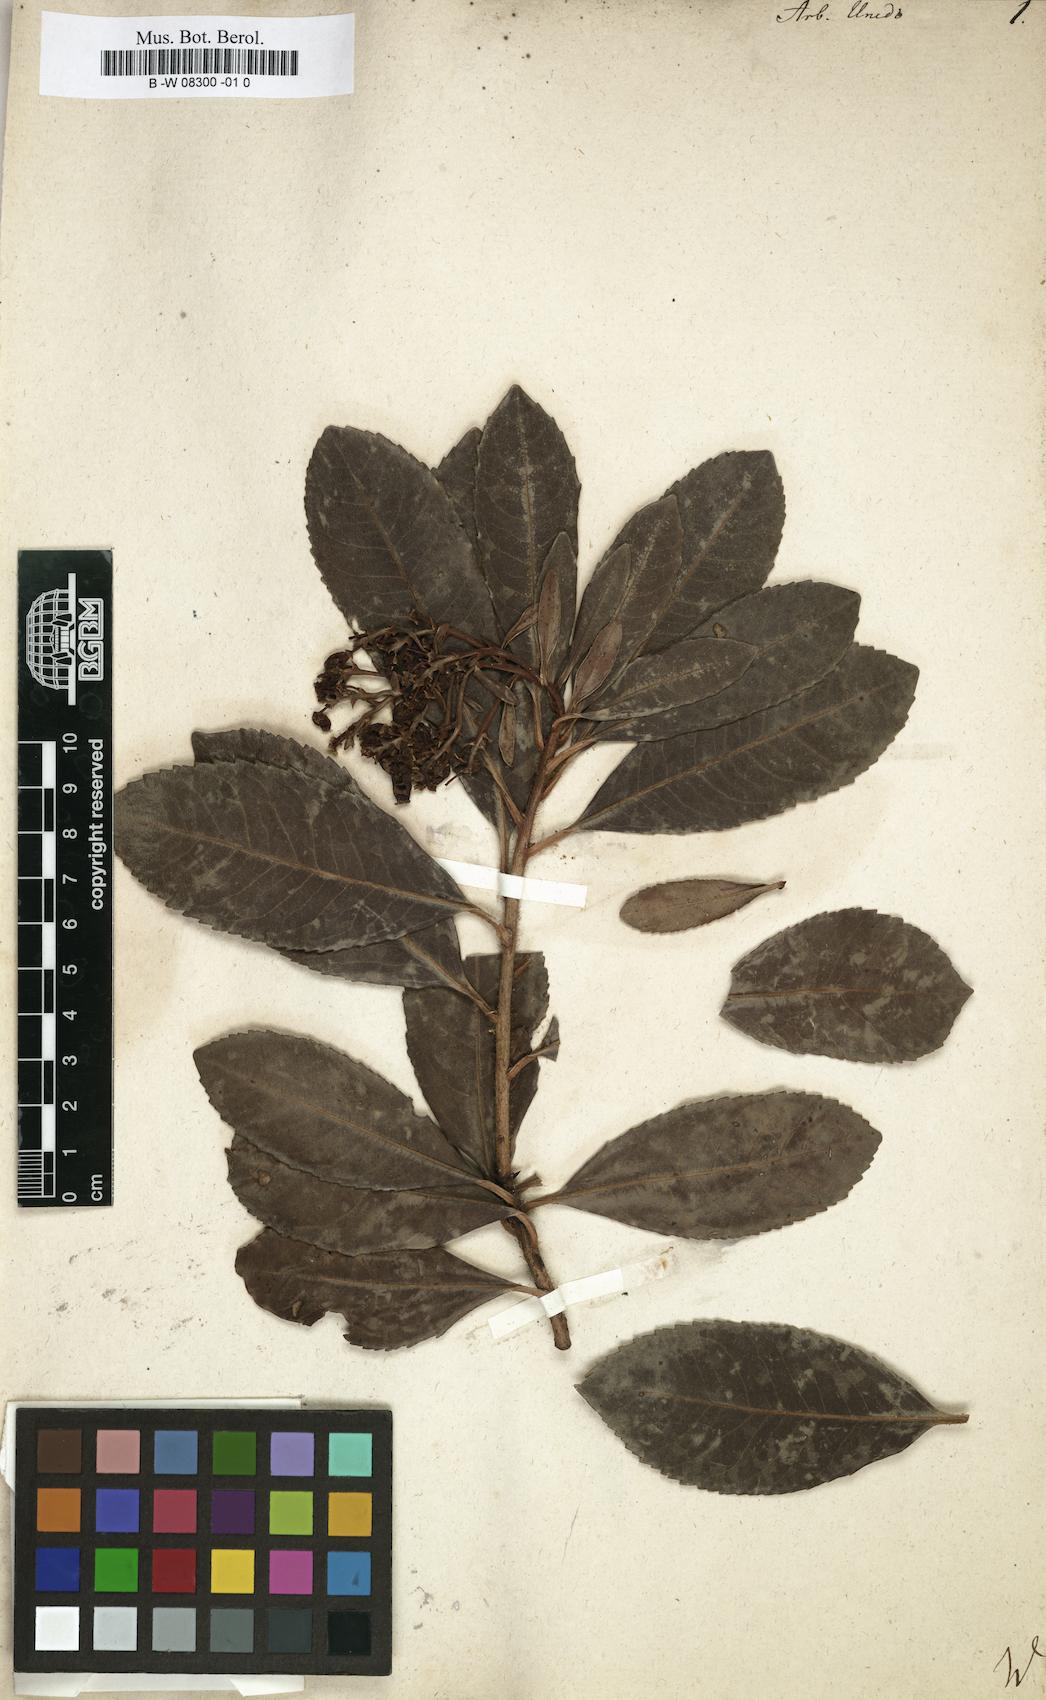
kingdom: Plantae
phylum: Tracheophyta
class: Magnoliopsida
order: Ericales
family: Ericaceae
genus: Arbutus
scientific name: Arbutus unedo
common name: Strawberry-tree
